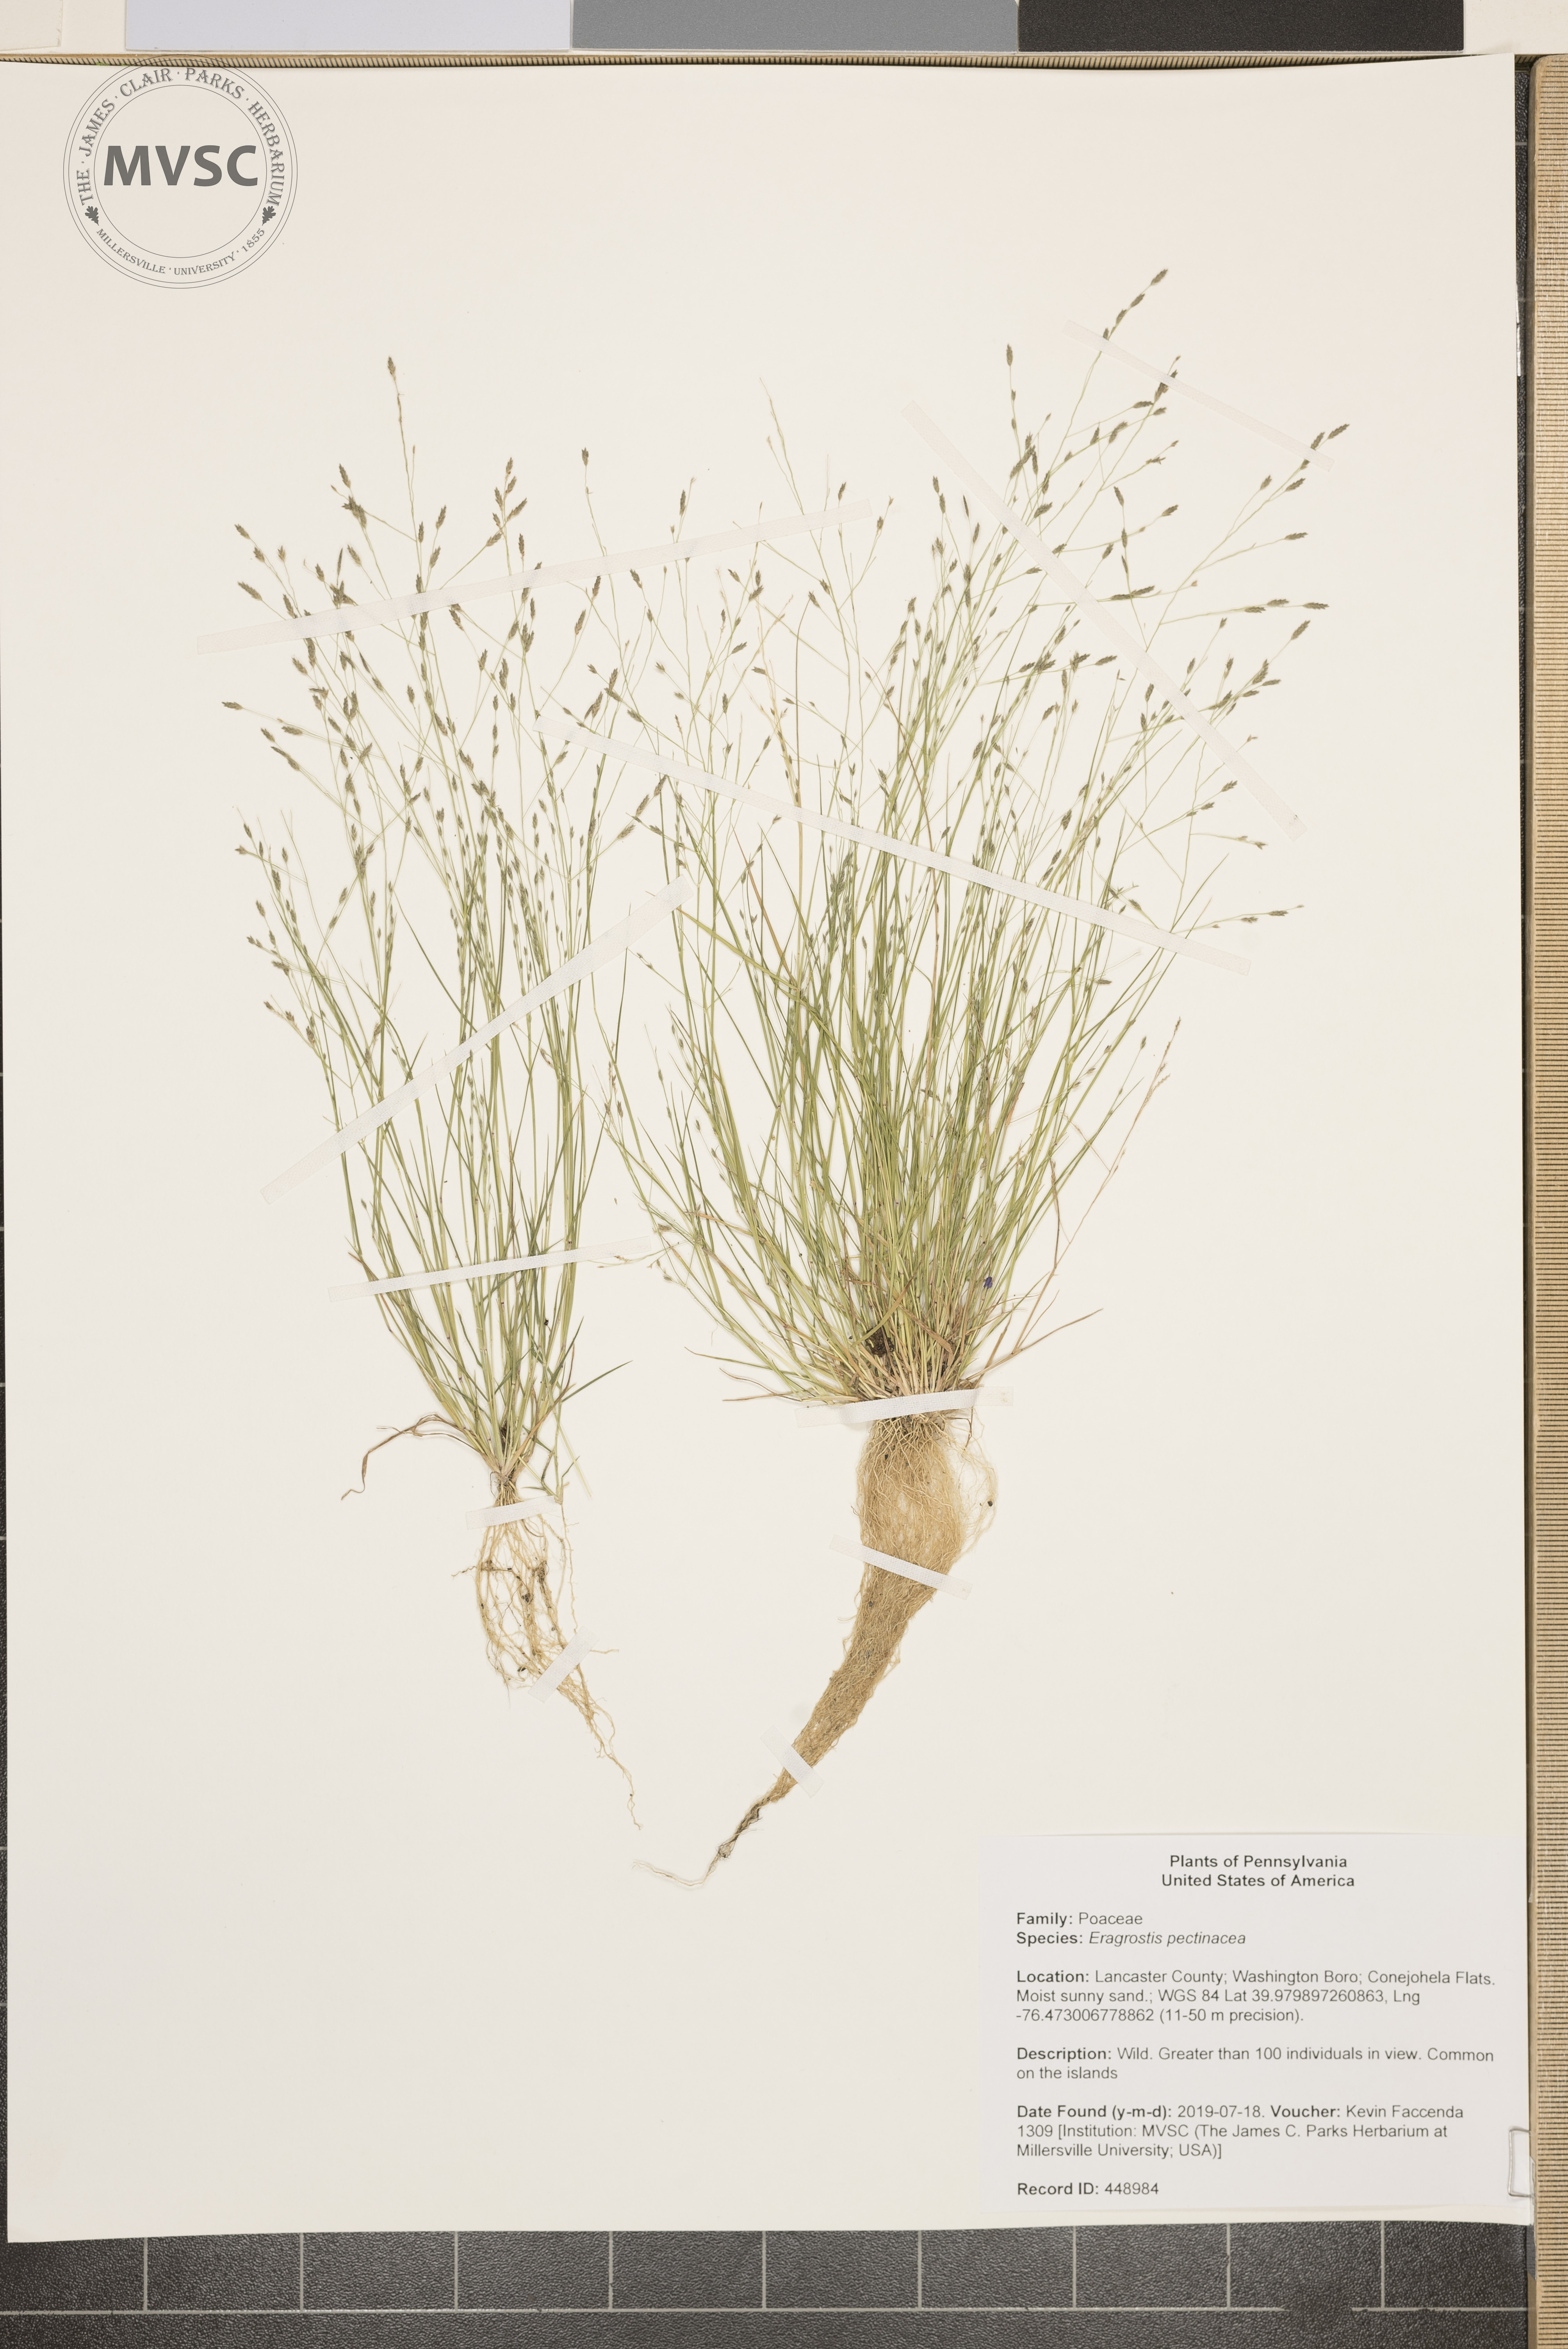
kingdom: Plantae
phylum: Tracheophyta
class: Liliopsida
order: Poales
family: Poaceae
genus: Eragrostis
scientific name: Eragrostis pectinacea
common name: Tufted lovegrass
